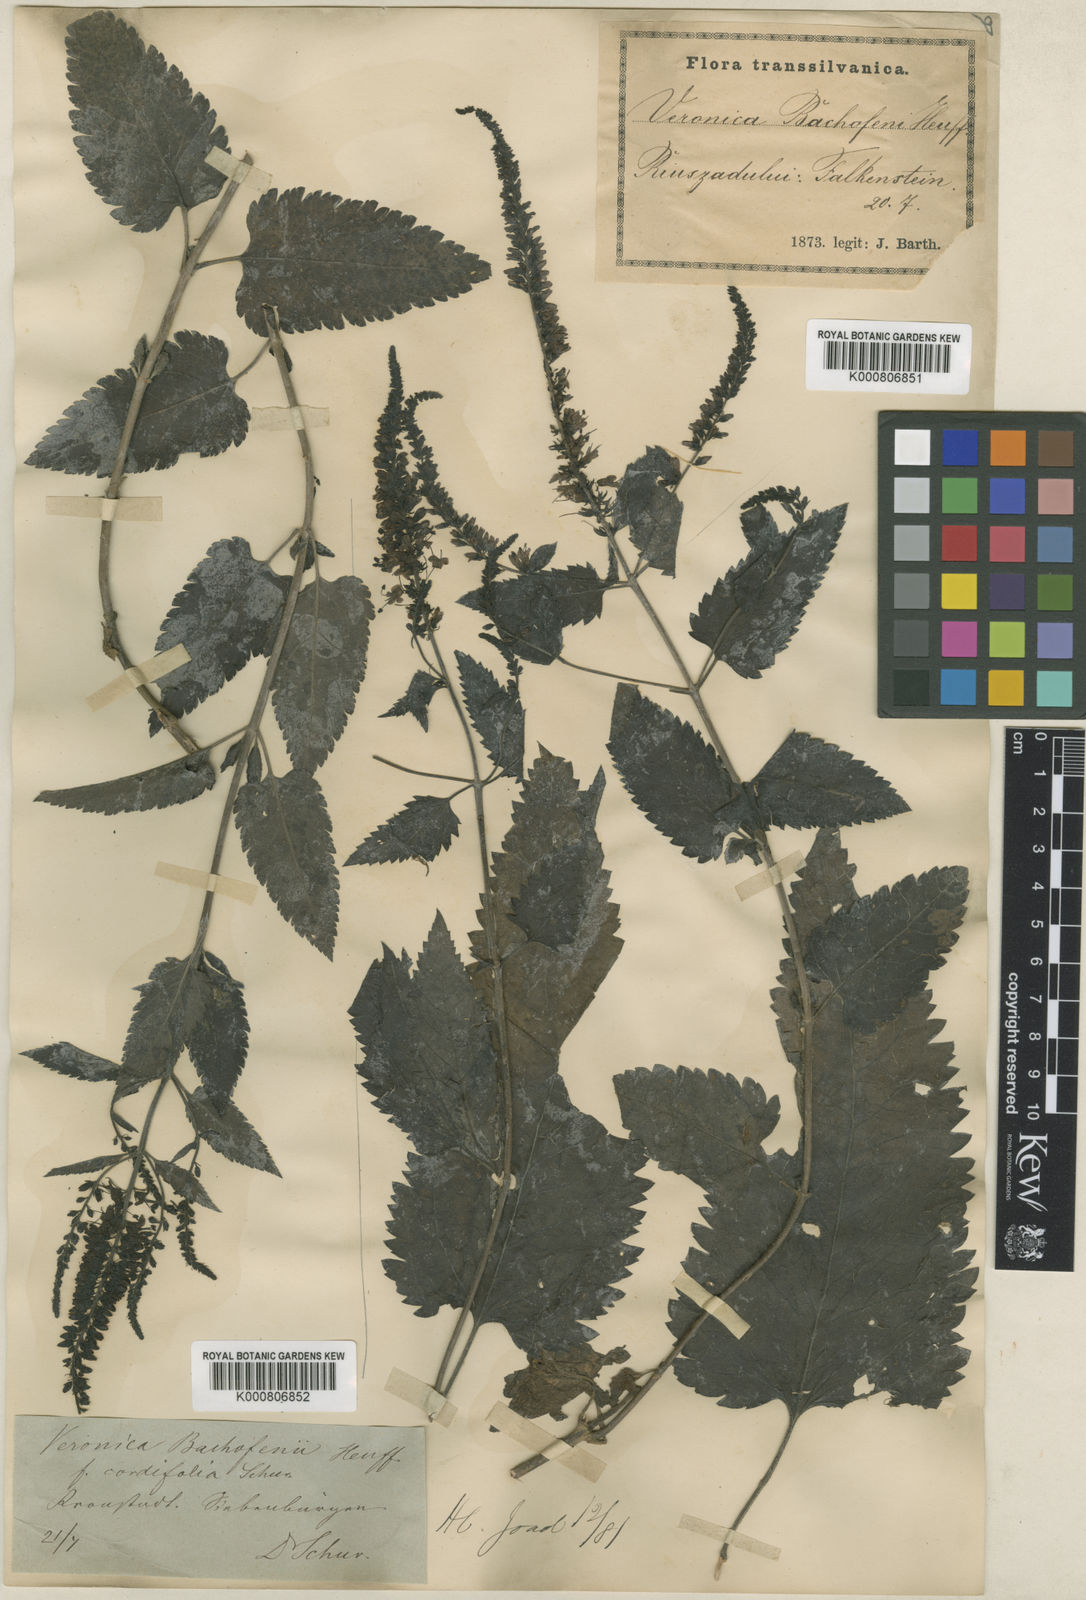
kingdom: Plantae
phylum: Tracheophyta
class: Magnoliopsida
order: Lamiales
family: Plantaginaceae
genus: Veronica
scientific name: Veronica bachofenii
